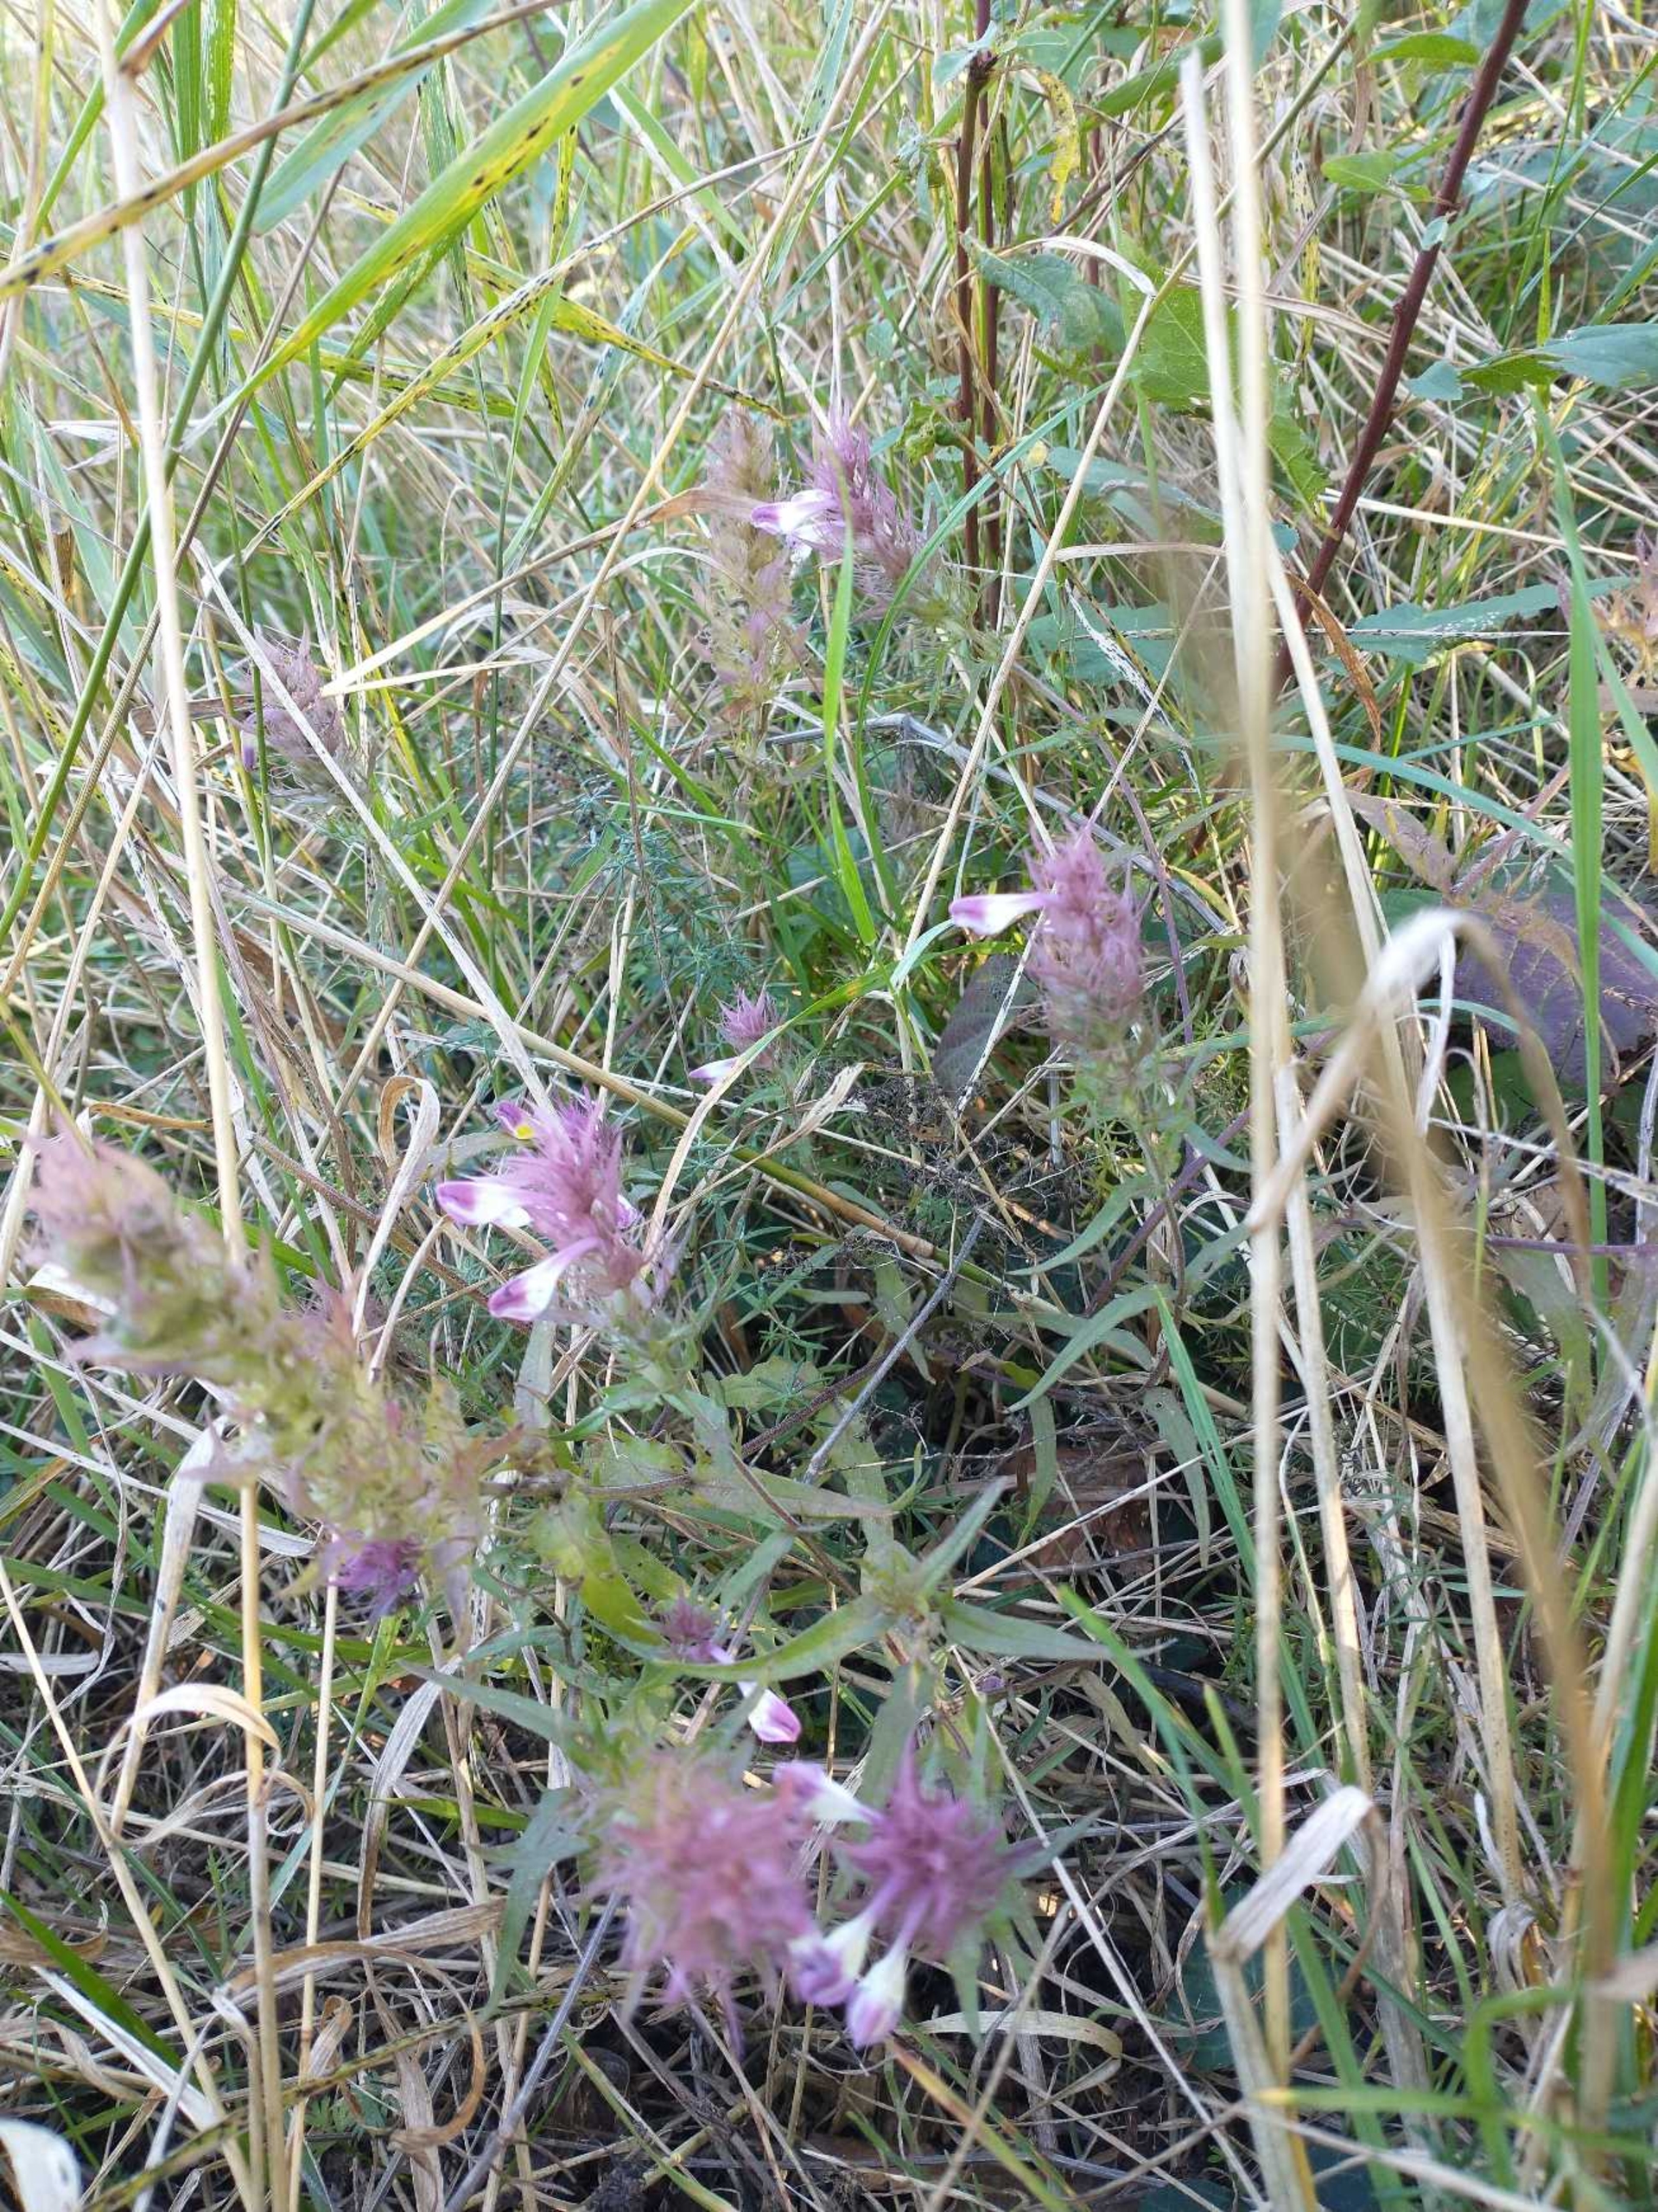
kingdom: Plantae
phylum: Tracheophyta
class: Magnoliopsida
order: Lamiales
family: Orobanchaceae
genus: Melampyrum
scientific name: Melampyrum arvense
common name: Ager-kohvede
